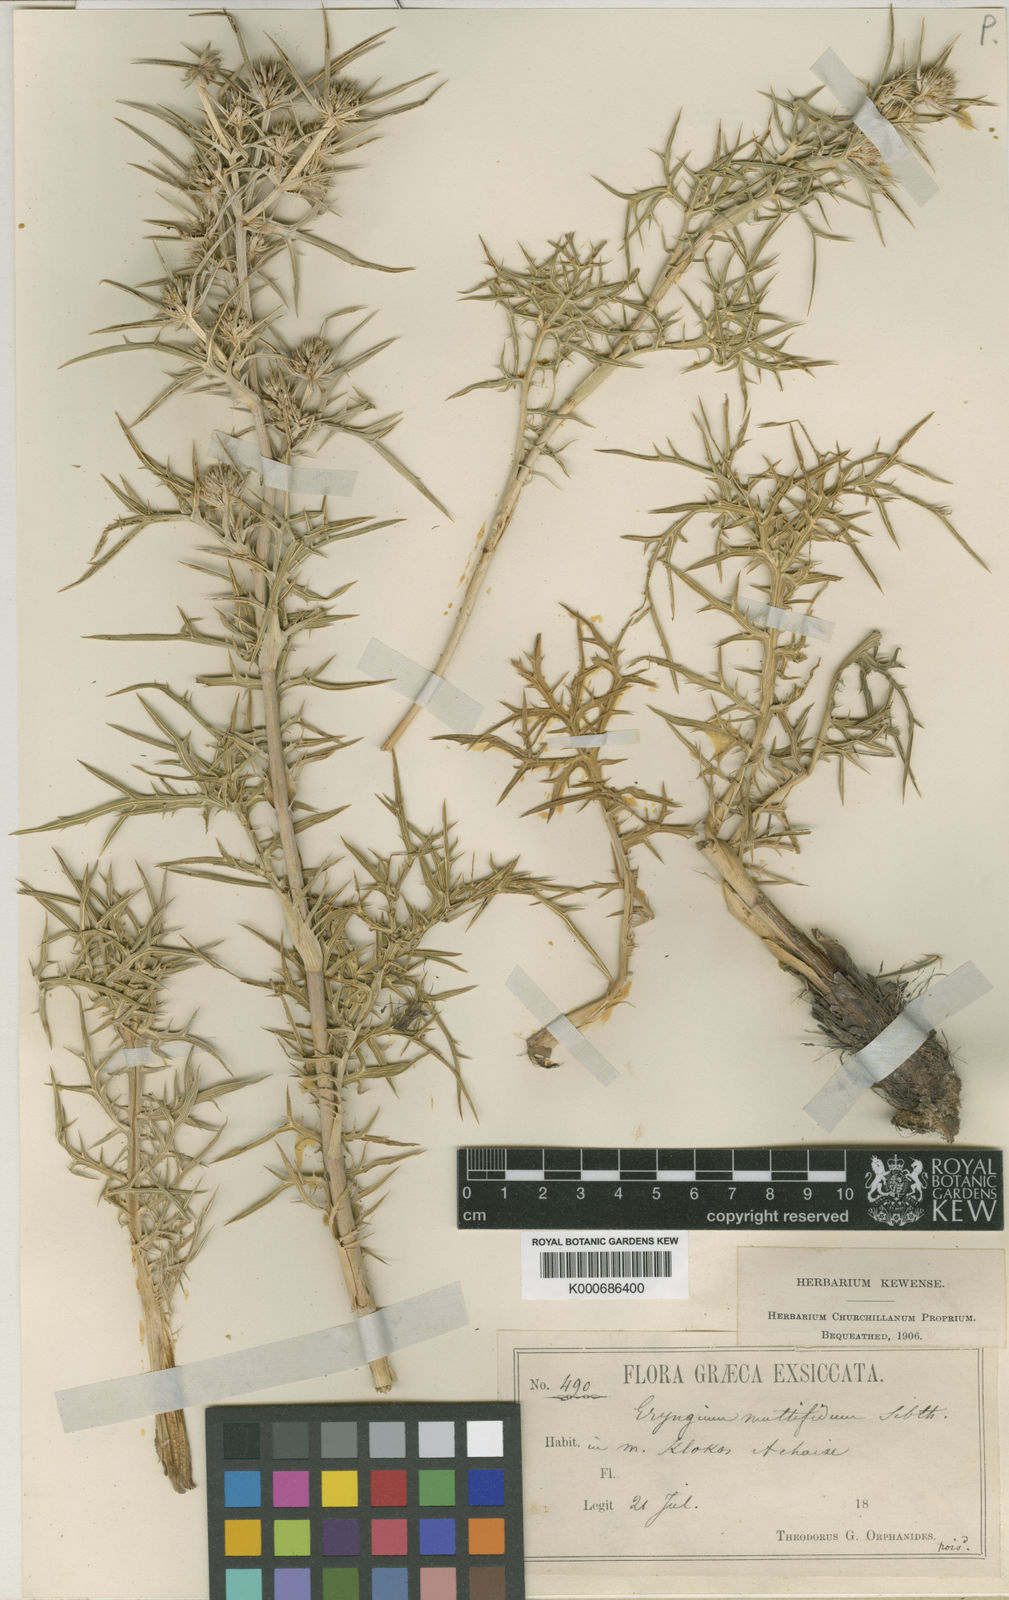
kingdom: Plantae
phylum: Tracheophyta
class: Magnoliopsida
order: Apiales
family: Apiaceae
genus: Eryngium
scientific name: Eryngium amethystinum
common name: Amethyst eryngo
